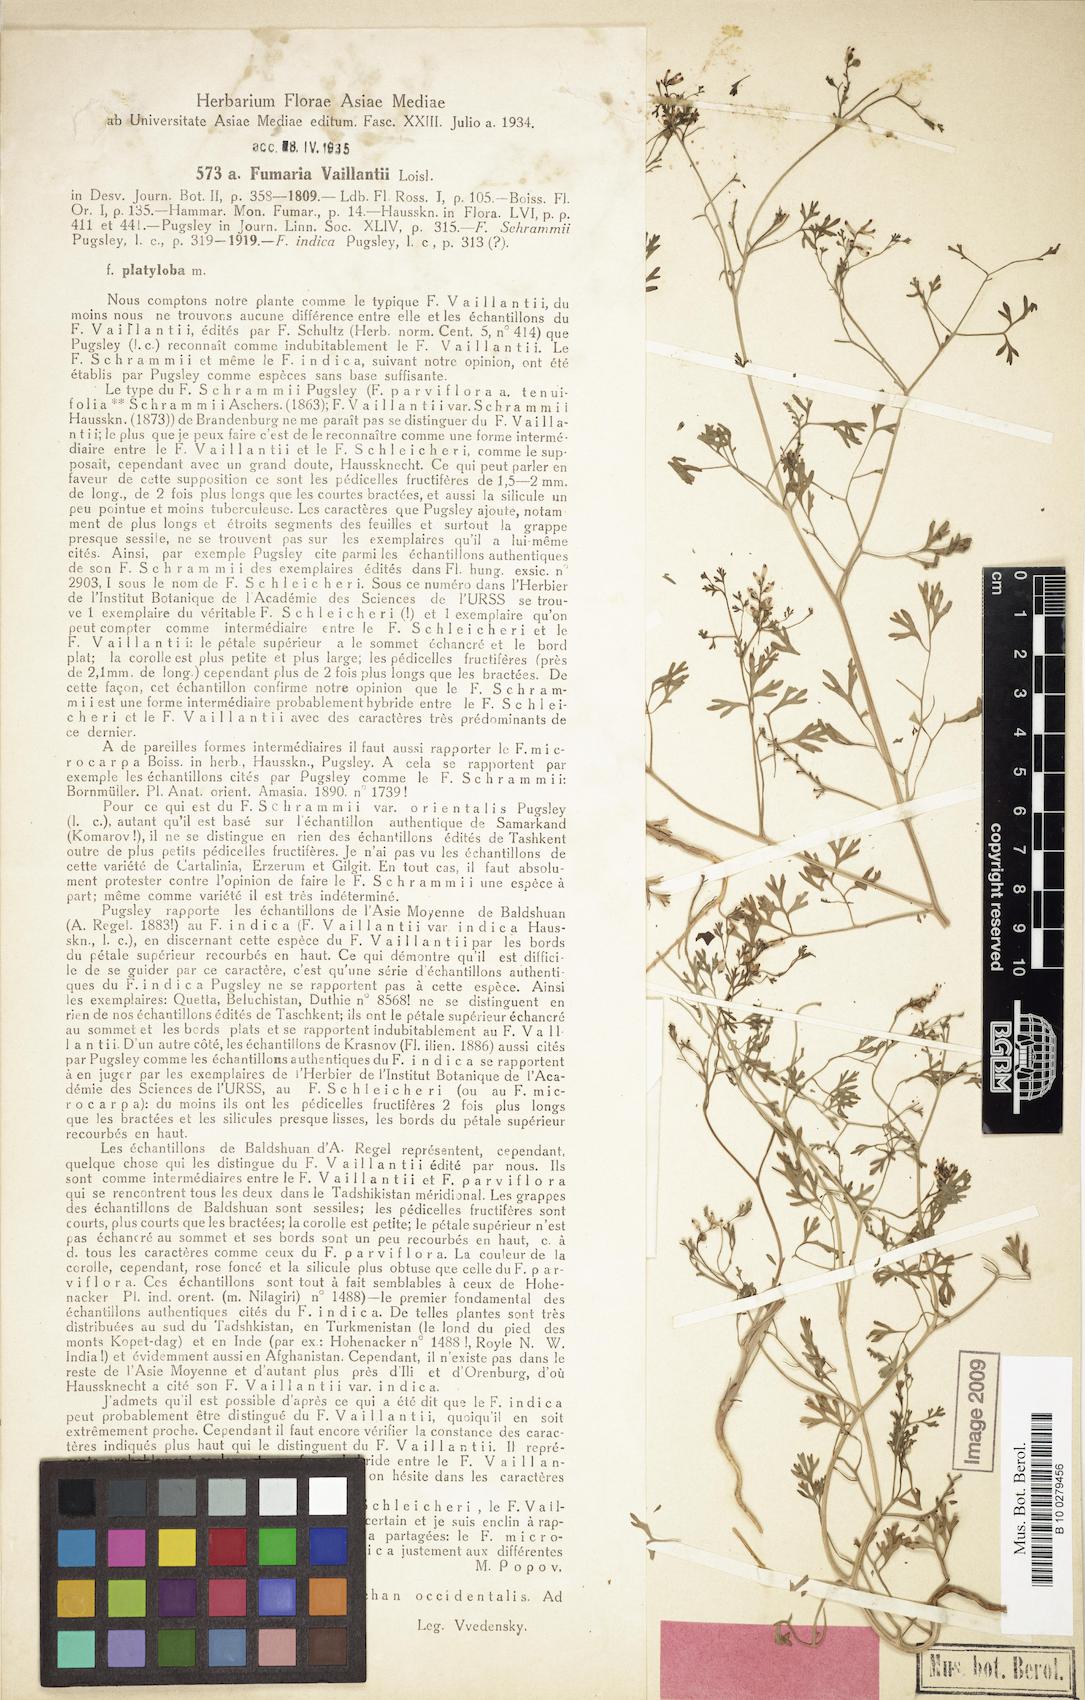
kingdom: Plantae
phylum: Tracheophyta
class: Magnoliopsida
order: Ranunculales
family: Papaveraceae
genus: Fumaria
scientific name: Fumaria vaillantii
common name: Few-flowered fumitory
